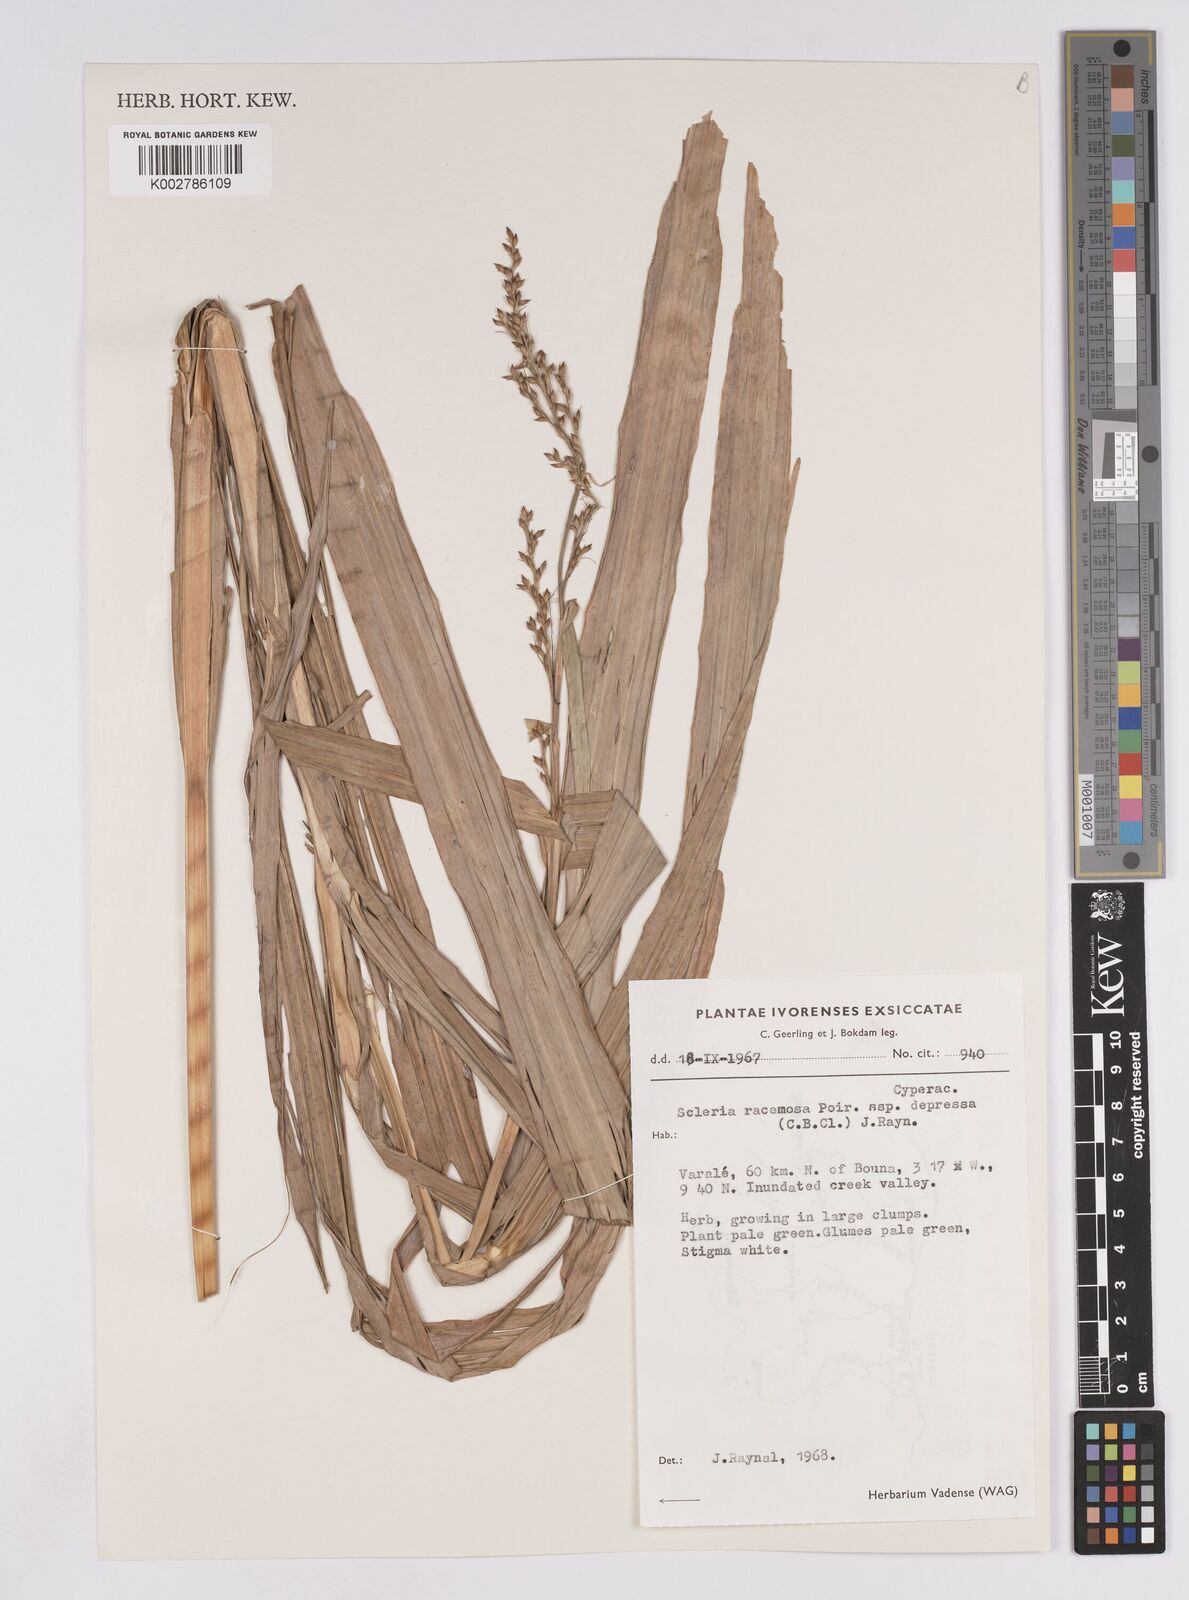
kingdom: Plantae
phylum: Tracheophyta
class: Liliopsida
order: Poales
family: Cyperaceae
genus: Scleria
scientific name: Scleria depressa
